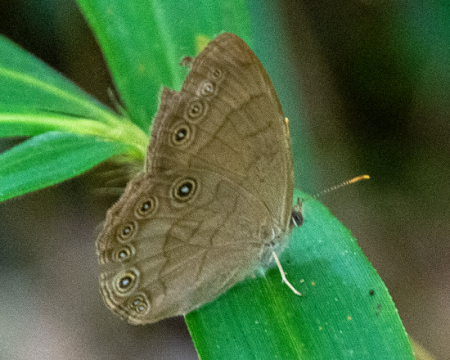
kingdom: Animalia
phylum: Arthropoda
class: Insecta
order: Lepidoptera
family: Nymphalidae
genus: Lethe
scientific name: Lethe eurydice
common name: Appalachian Eyed Brown
